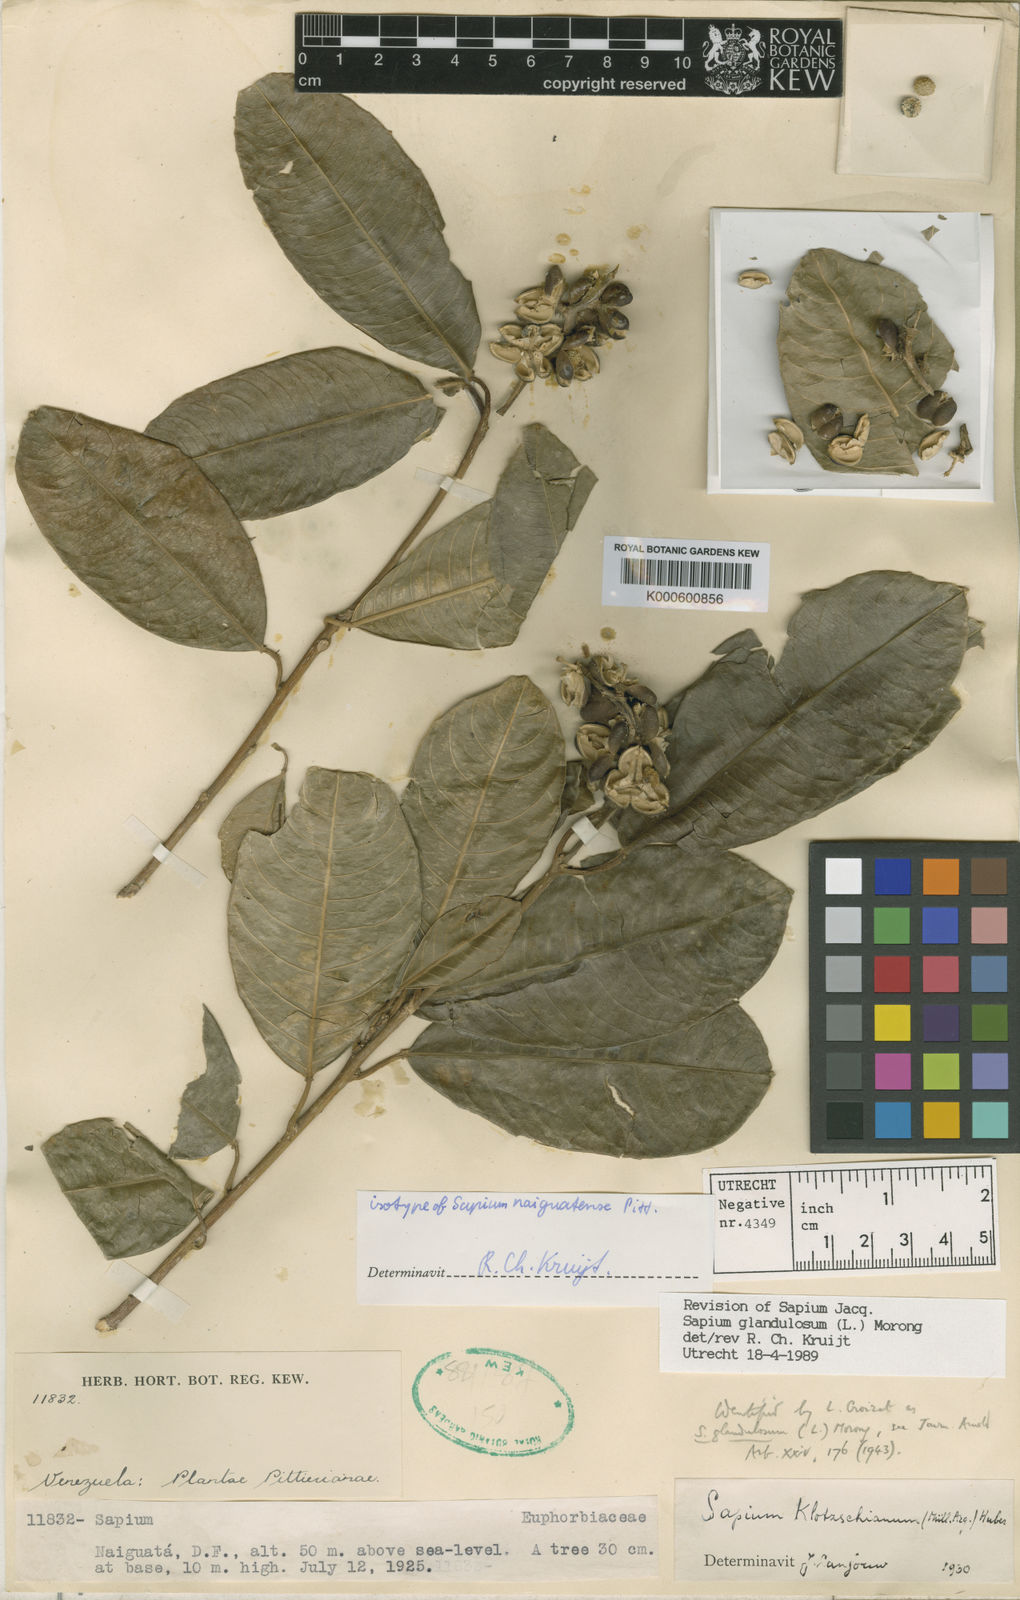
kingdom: Plantae
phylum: Tracheophyta
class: Magnoliopsida
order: Malpighiales
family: Euphorbiaceae
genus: Sapium
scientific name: Sapium glandulosum
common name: Milktree
